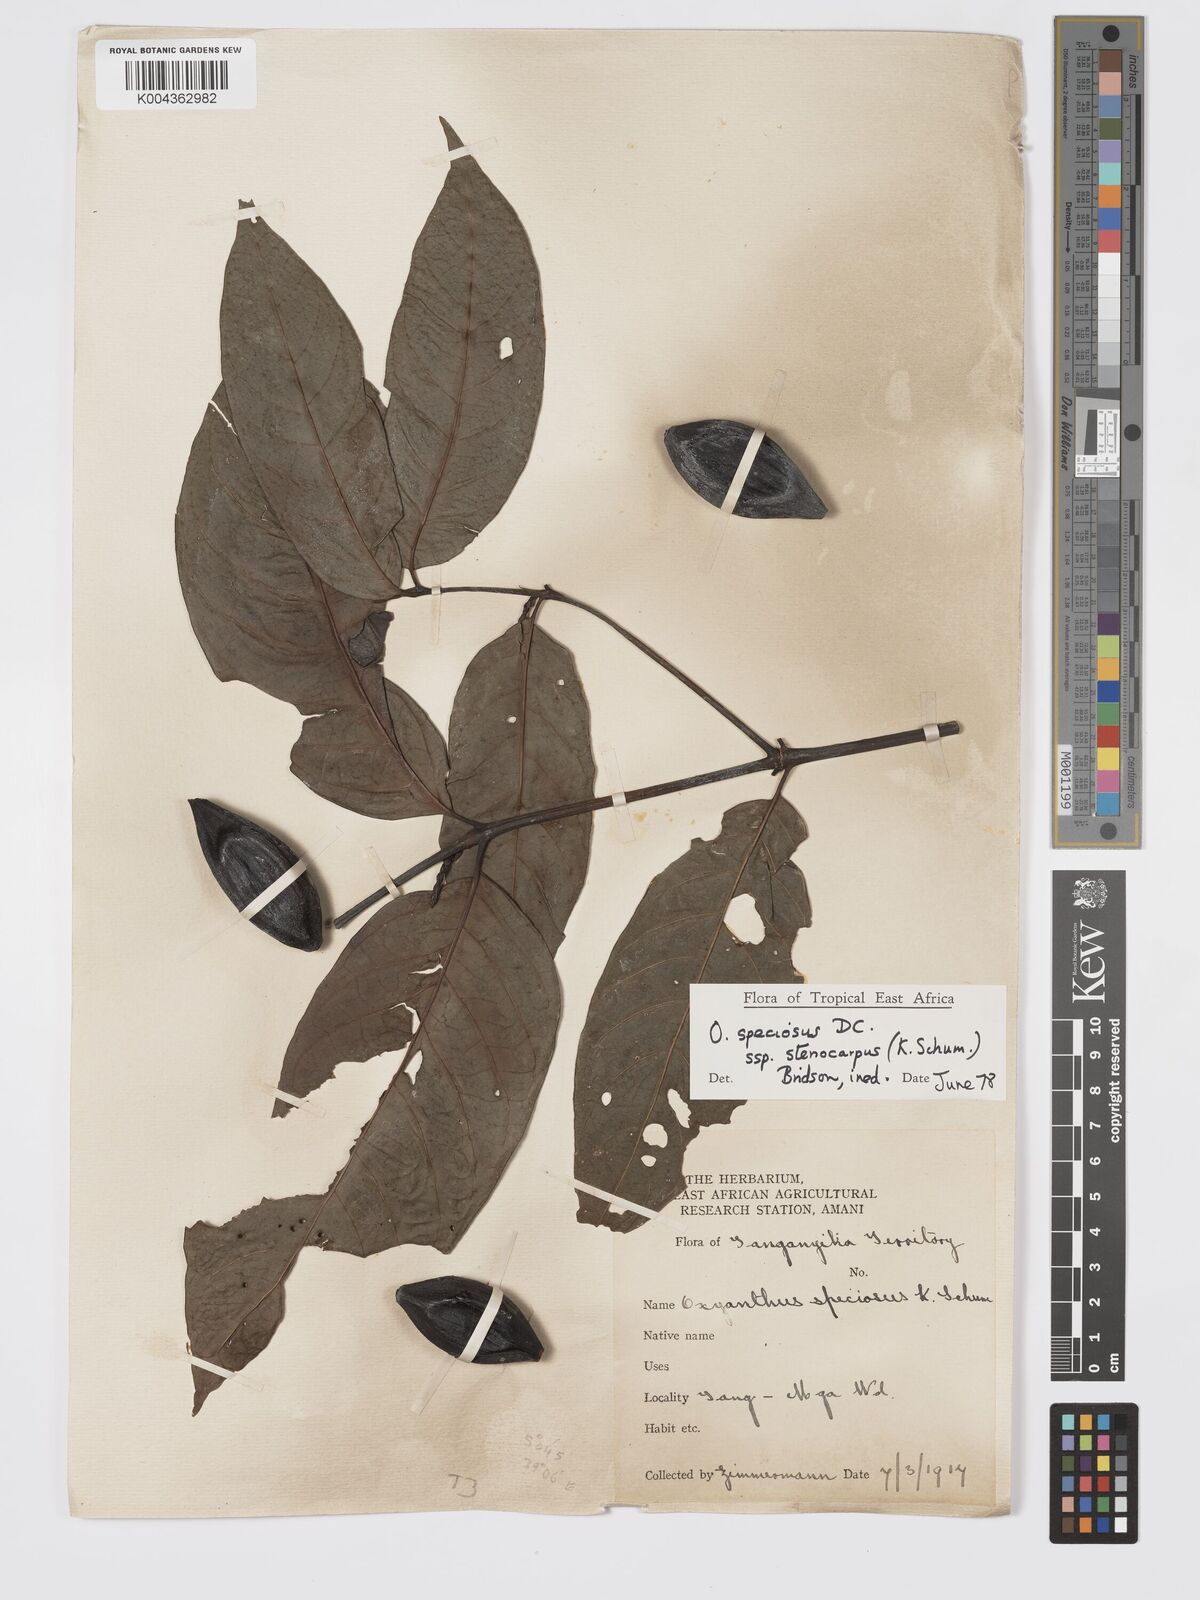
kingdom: Plantae
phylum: Tracheophyta
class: Magnoliopsida
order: Gentianales
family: Rubiaceae
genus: Oxyanthus
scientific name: Oxyanthus speciosus
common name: Whipstick loquat
